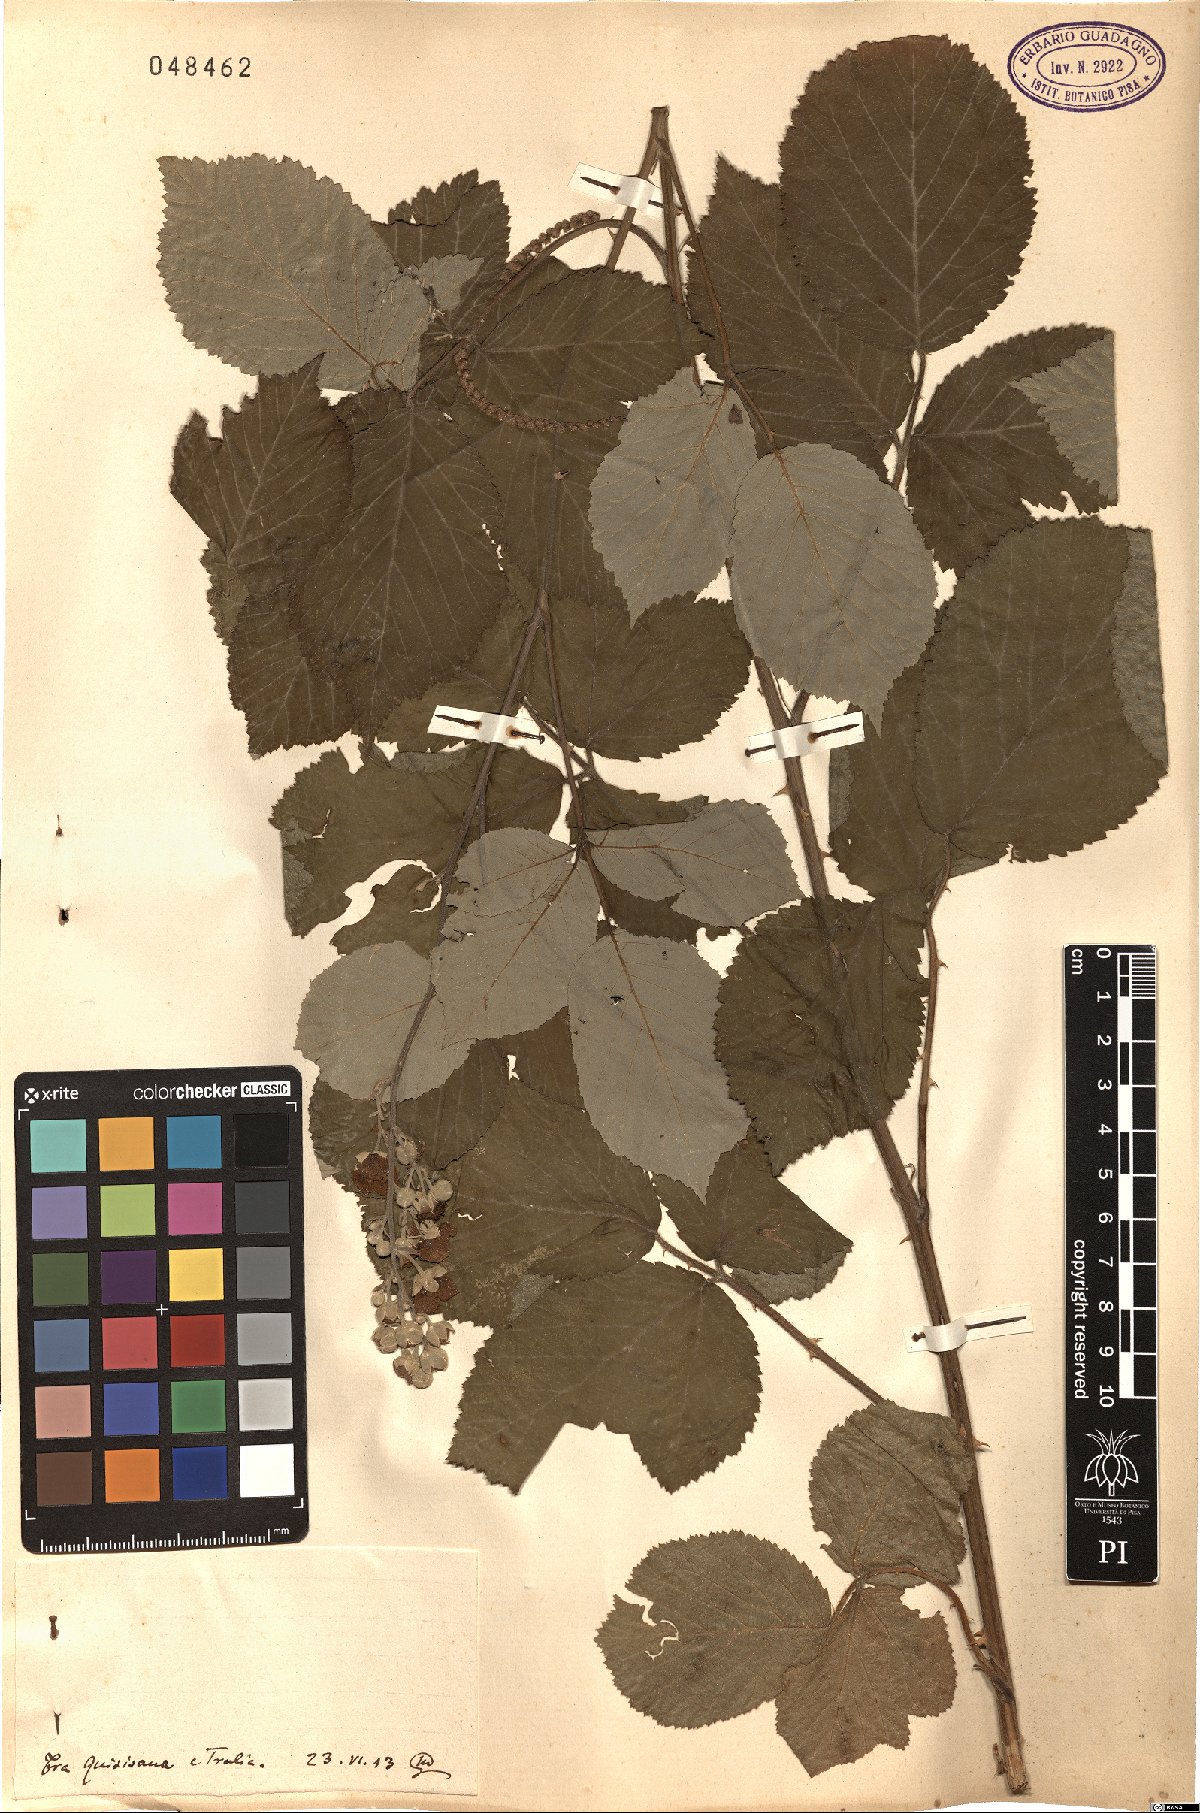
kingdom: Plantae
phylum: Tracheophyta
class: Magnoliopsida
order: Rosales
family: Rosaceae
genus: Rubus
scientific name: Rubus
